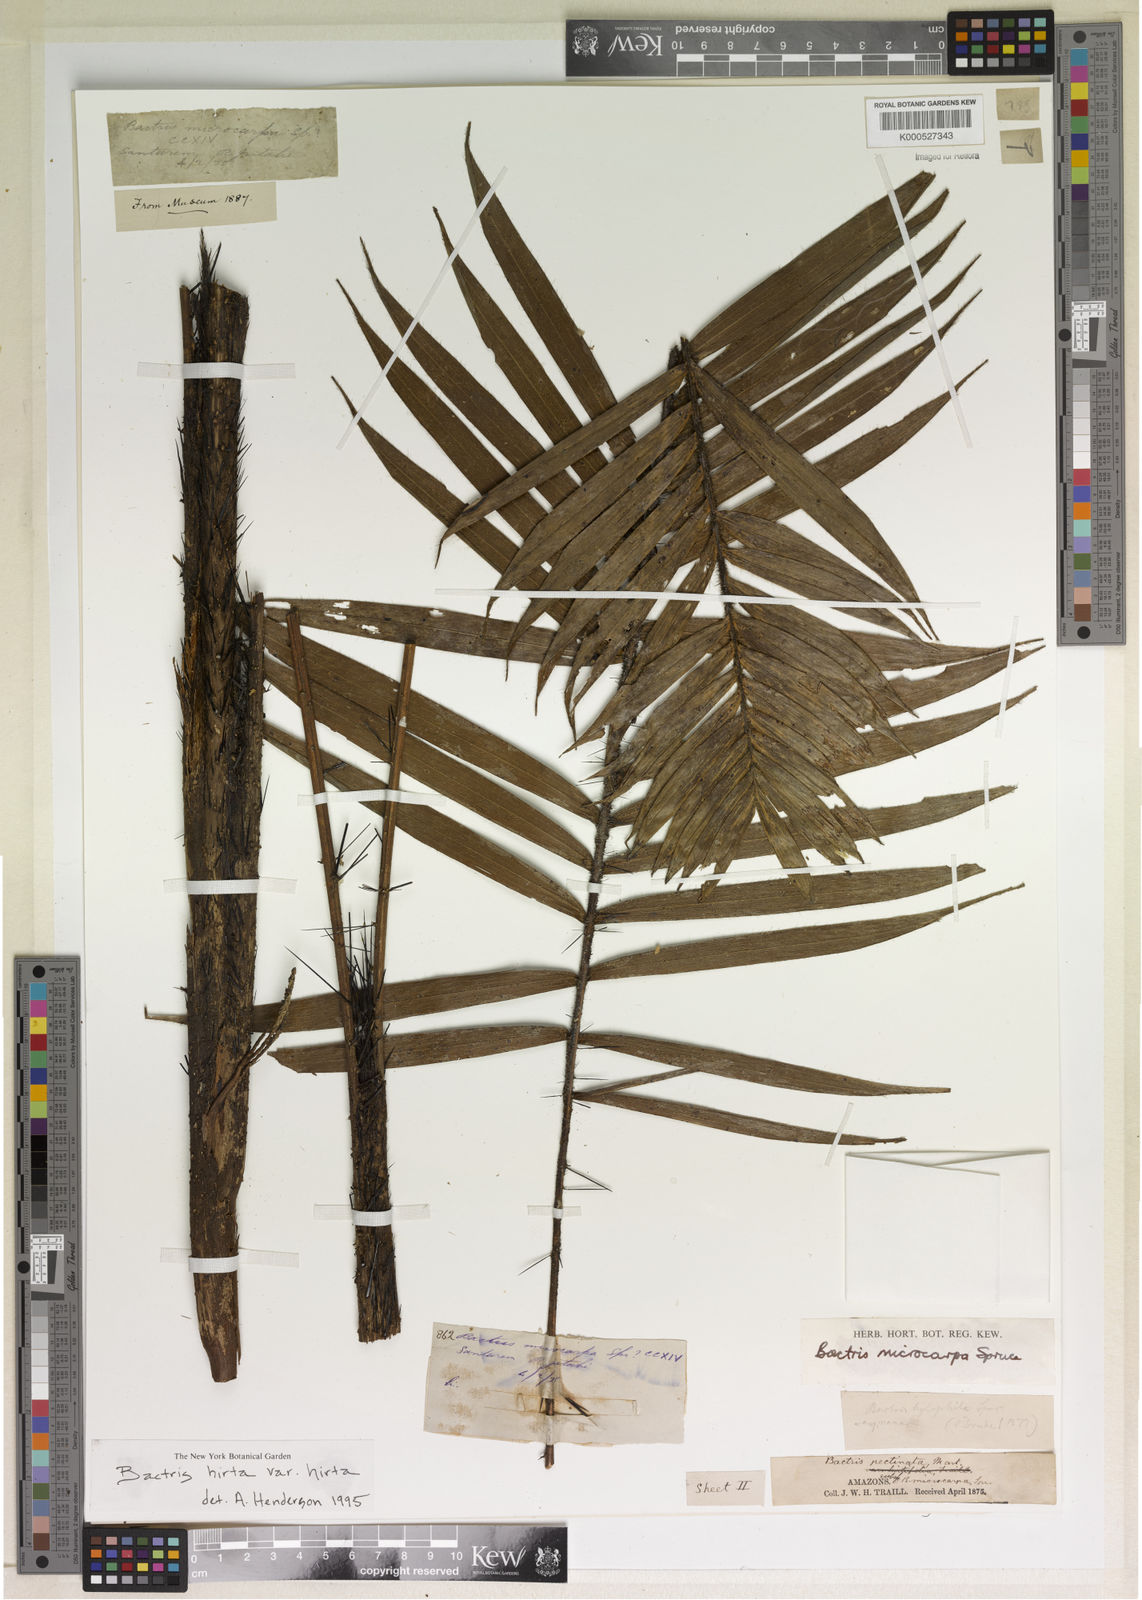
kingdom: Plantae
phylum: Tracheophyta
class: Liliopsida
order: Arecales
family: Arecaceae
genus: Bactris
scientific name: Bactris hirta
